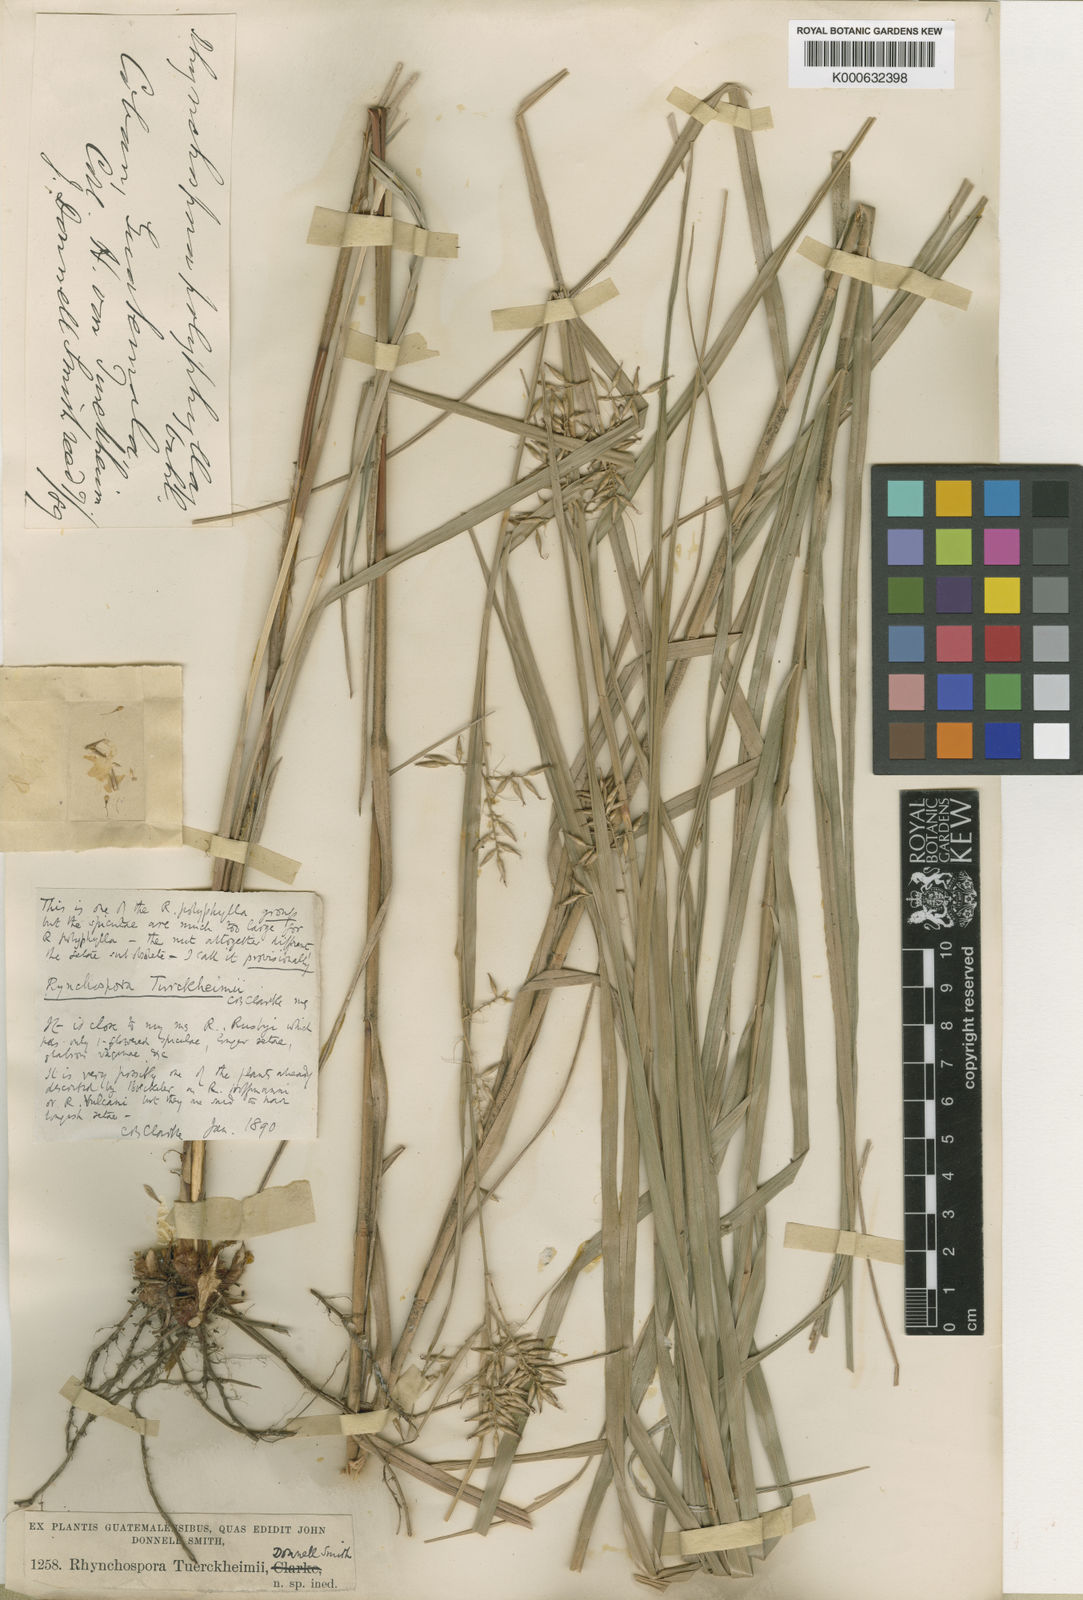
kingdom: Plantae
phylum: Tracheophyta
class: Liliopsida
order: Poales
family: Cyperaceae
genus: Rhynchospora
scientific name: Rhynchospora
